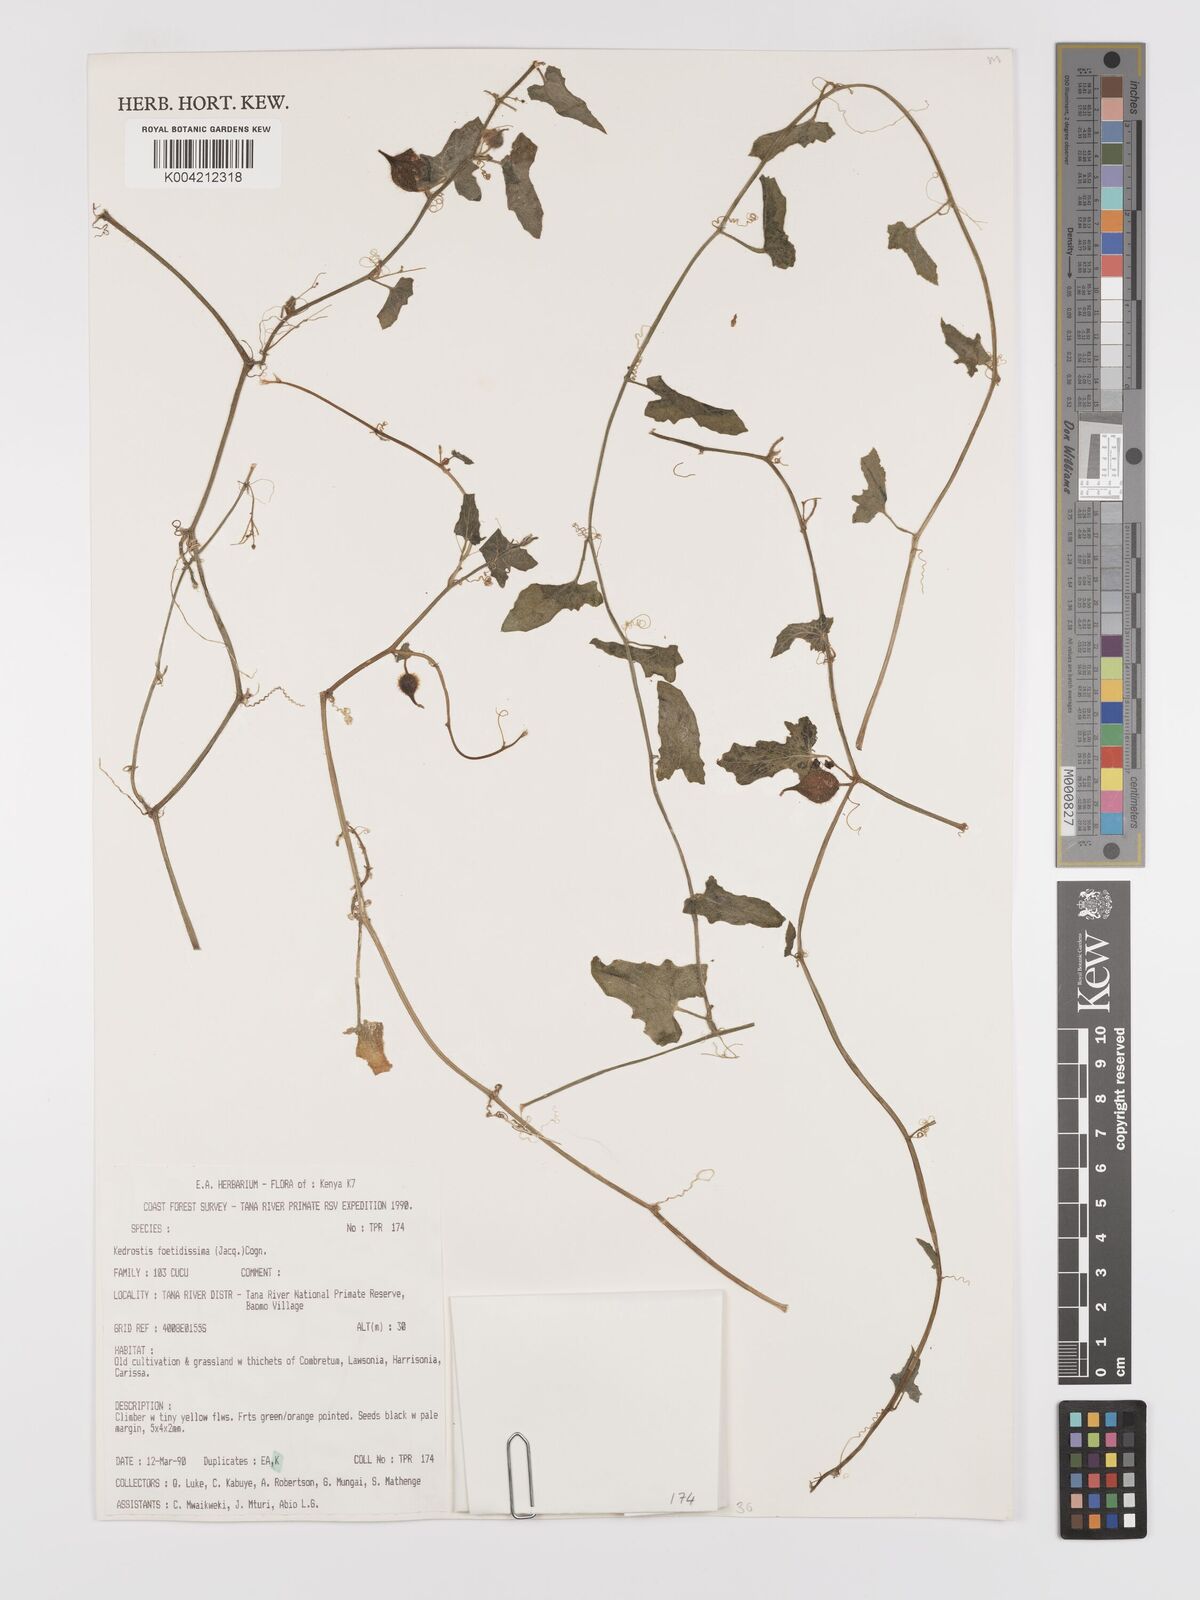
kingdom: Plantae
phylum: Tracheophyta
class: Magnoliopsida
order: Cucurbitales
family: Cucurbitaceae
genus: Kedrostis
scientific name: Kedrostis foetidissima
